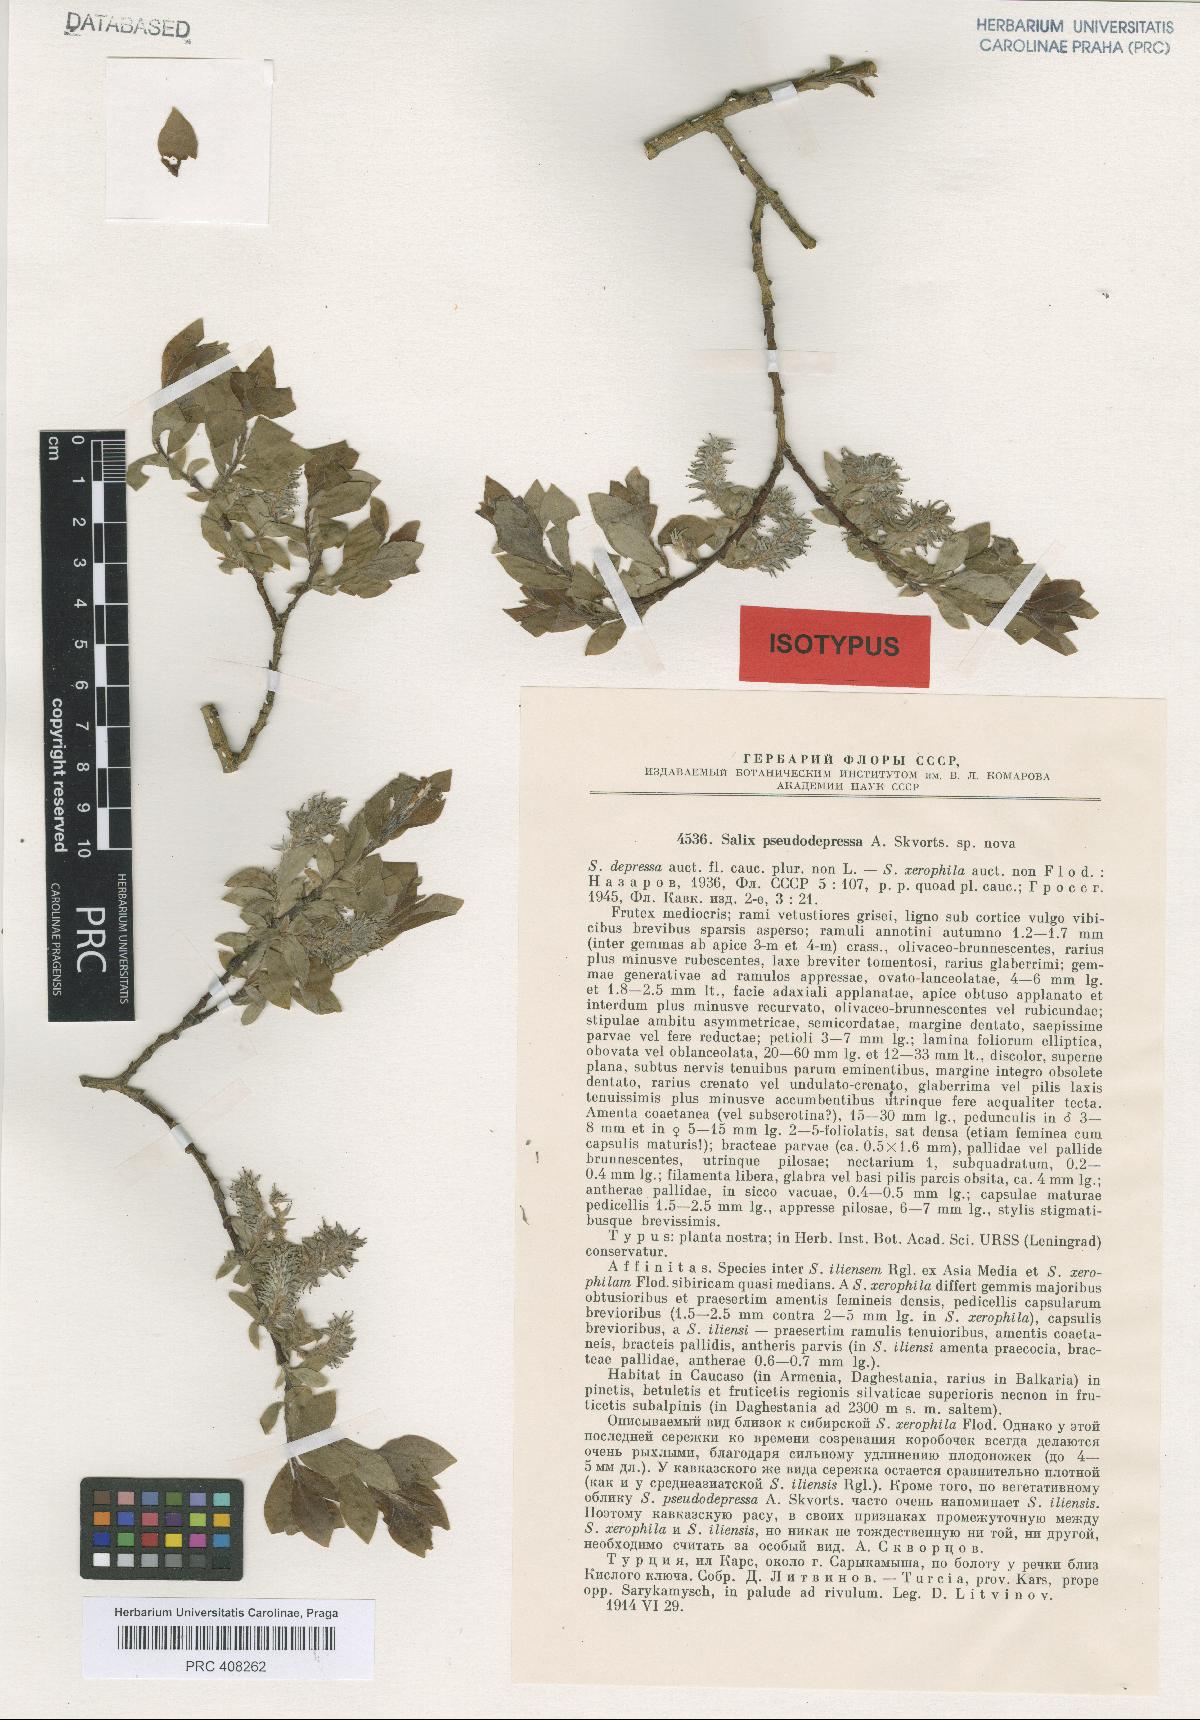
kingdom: Plantae
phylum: Tracheophyta
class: Magnoliopsida
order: Malpighiales
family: Salicaceae
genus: Salix
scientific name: Salix pseudodepressa
